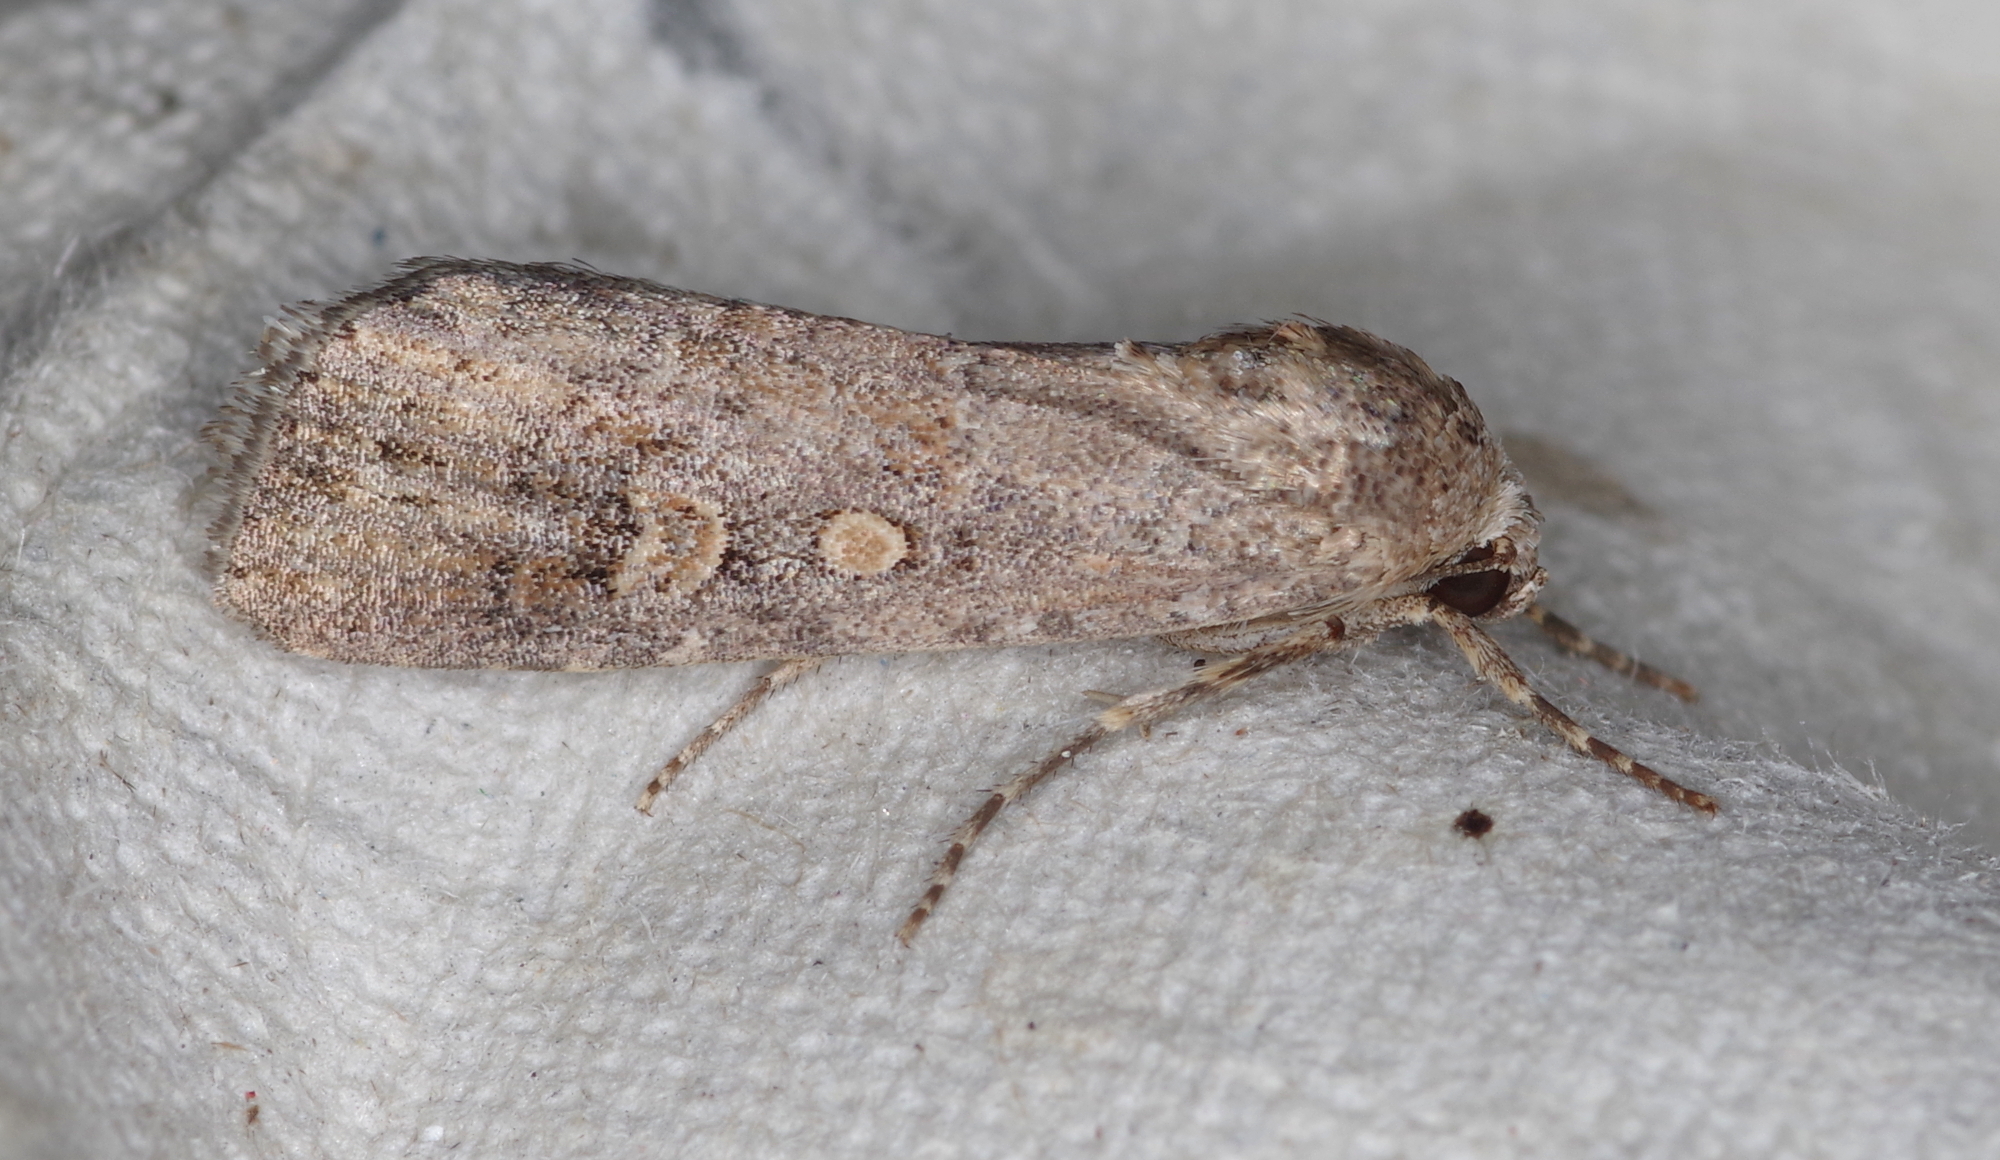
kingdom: Animalia
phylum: Arthropoda
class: Insecta
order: Lepidoptera
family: Noctuidae
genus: Spodoptera
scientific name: Spodoptera exigua
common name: Beet armyworm
